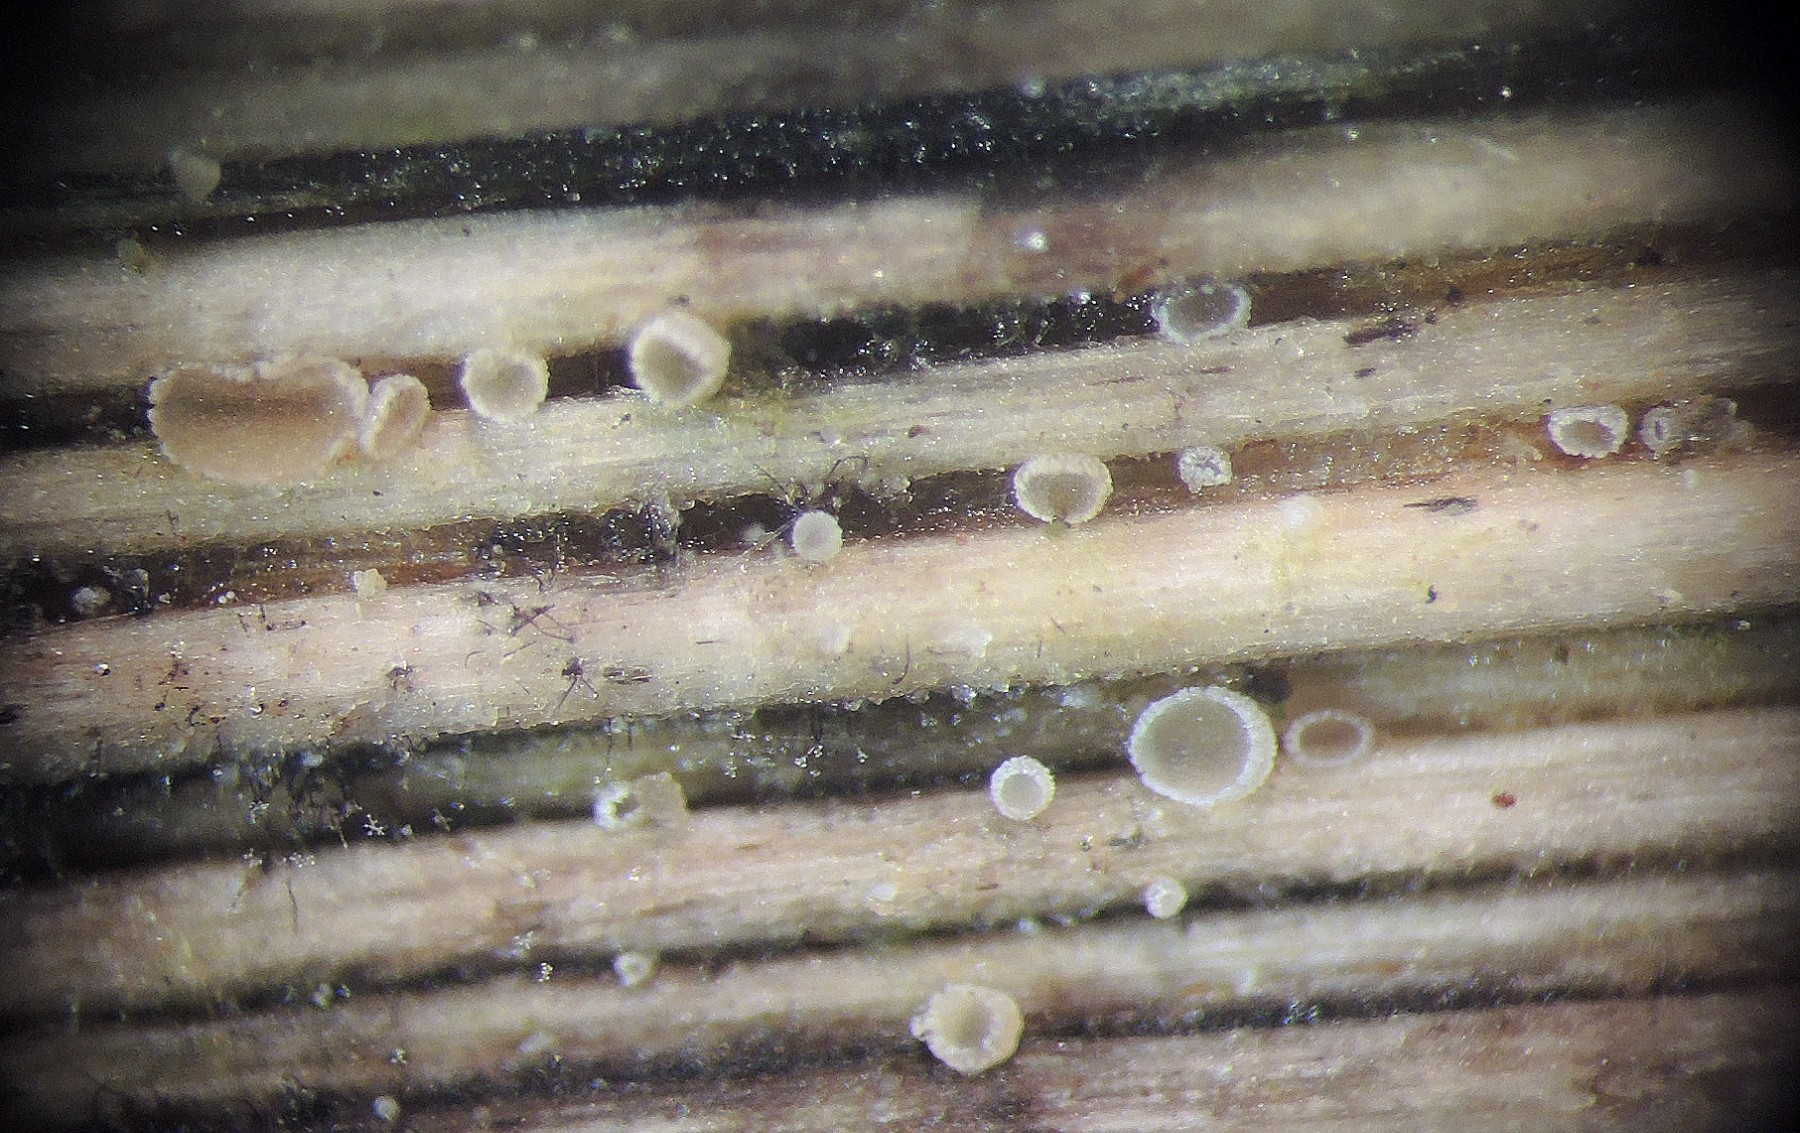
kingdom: Fungi
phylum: Ascomycota
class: Leotiomycetes
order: Helotiales
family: Hyaloscyphaceae
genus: Cistella
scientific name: Cistella hungarica
